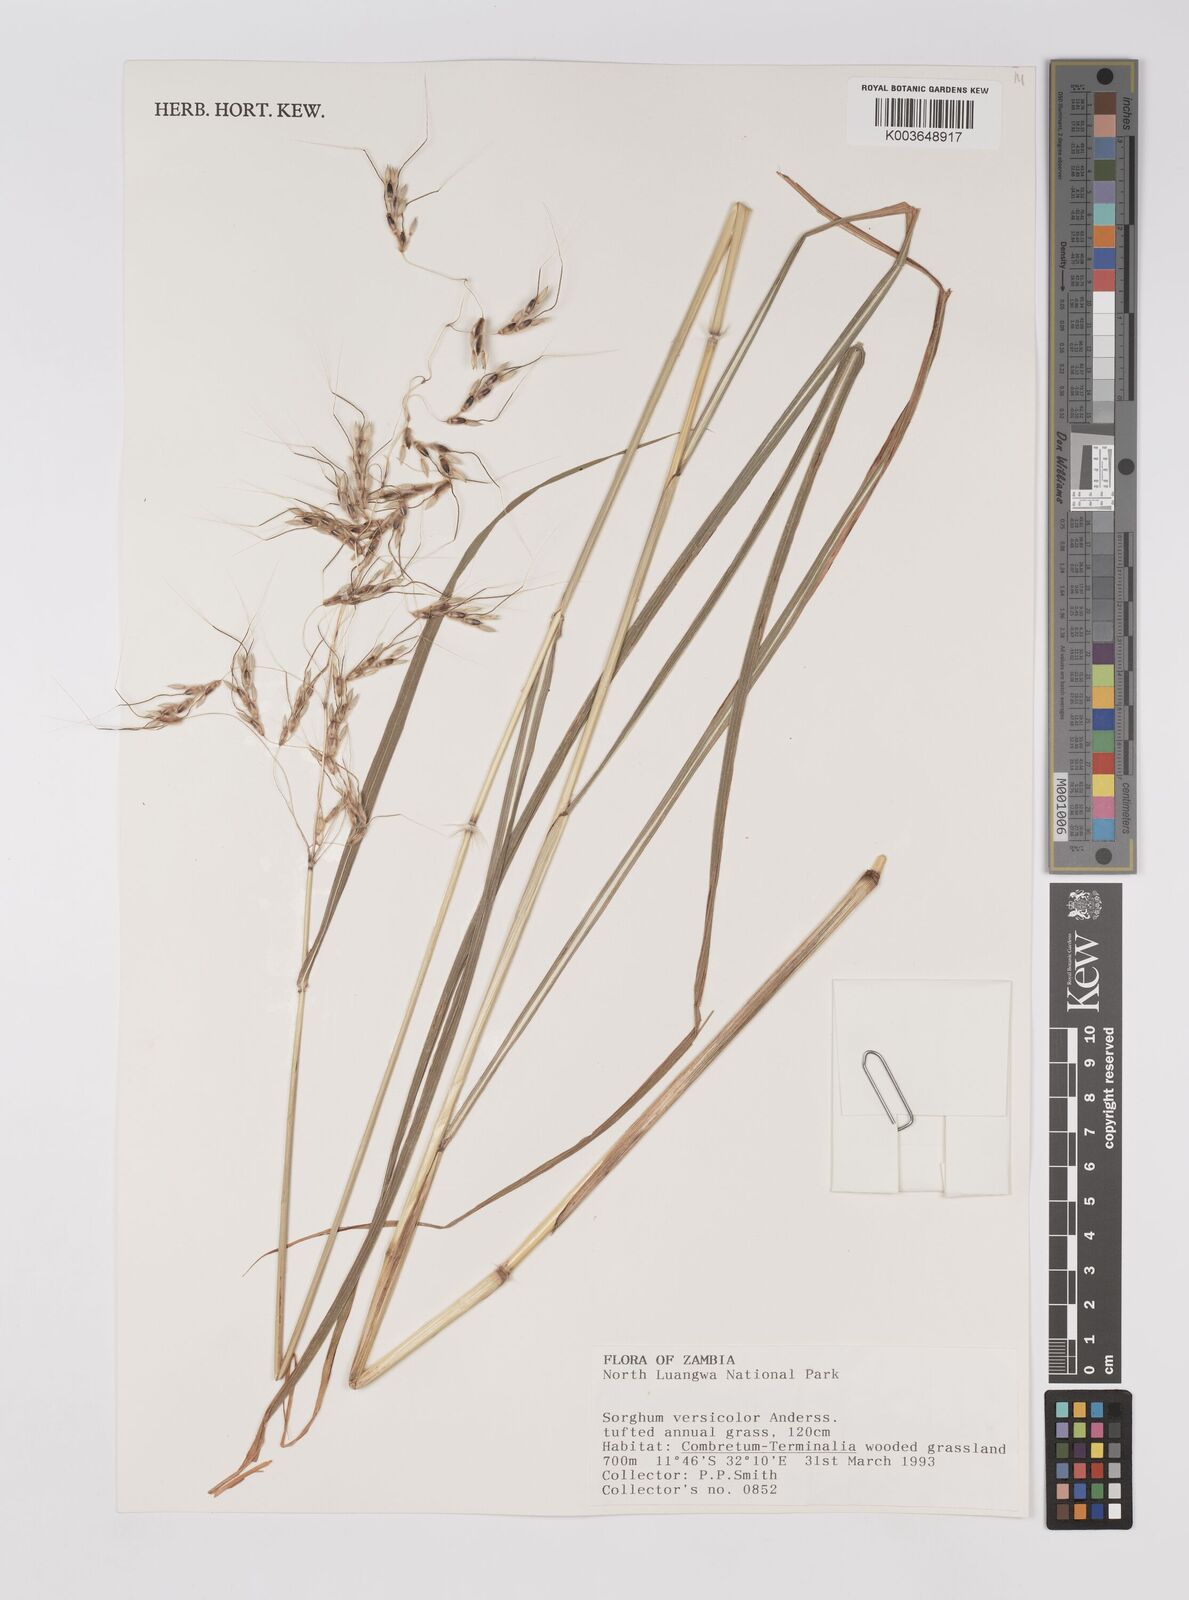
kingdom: Plantae
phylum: Tracheophyta
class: Liliopsida
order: Poales
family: Poaceae
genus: Sarga
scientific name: Sarga versicolor
